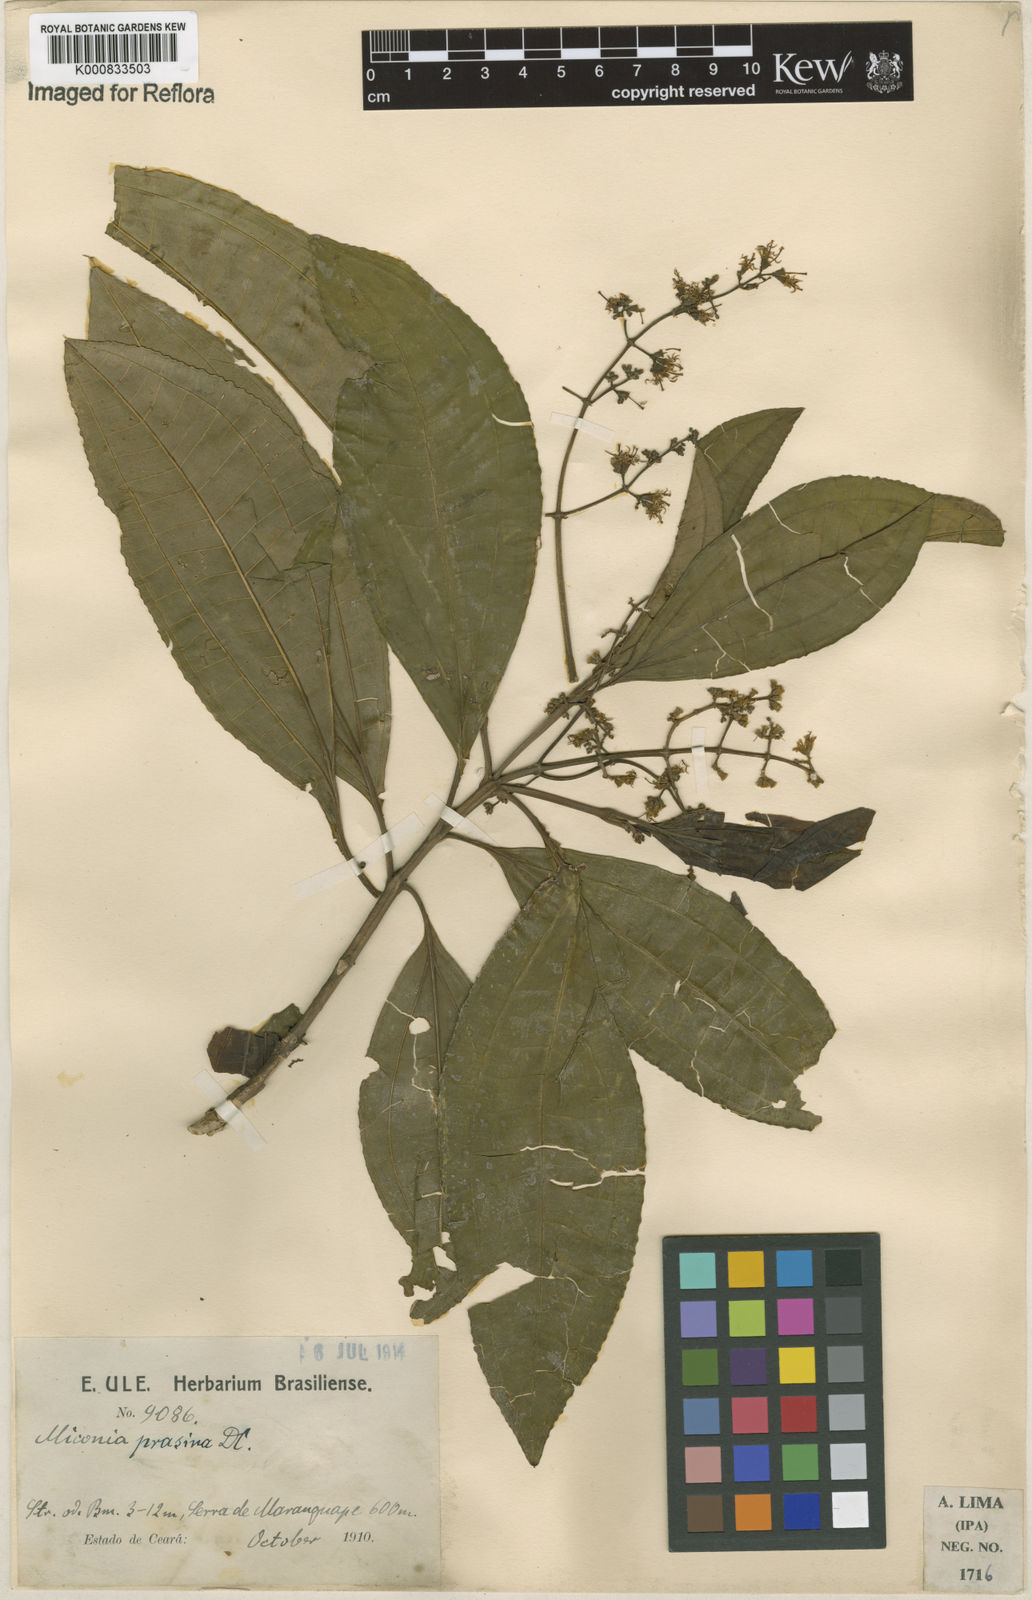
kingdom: Plantae
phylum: Tracheophyta
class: Magnoliopsida
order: Myrtales
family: Melastomataceae
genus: Miconia
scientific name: Miconia prasina
